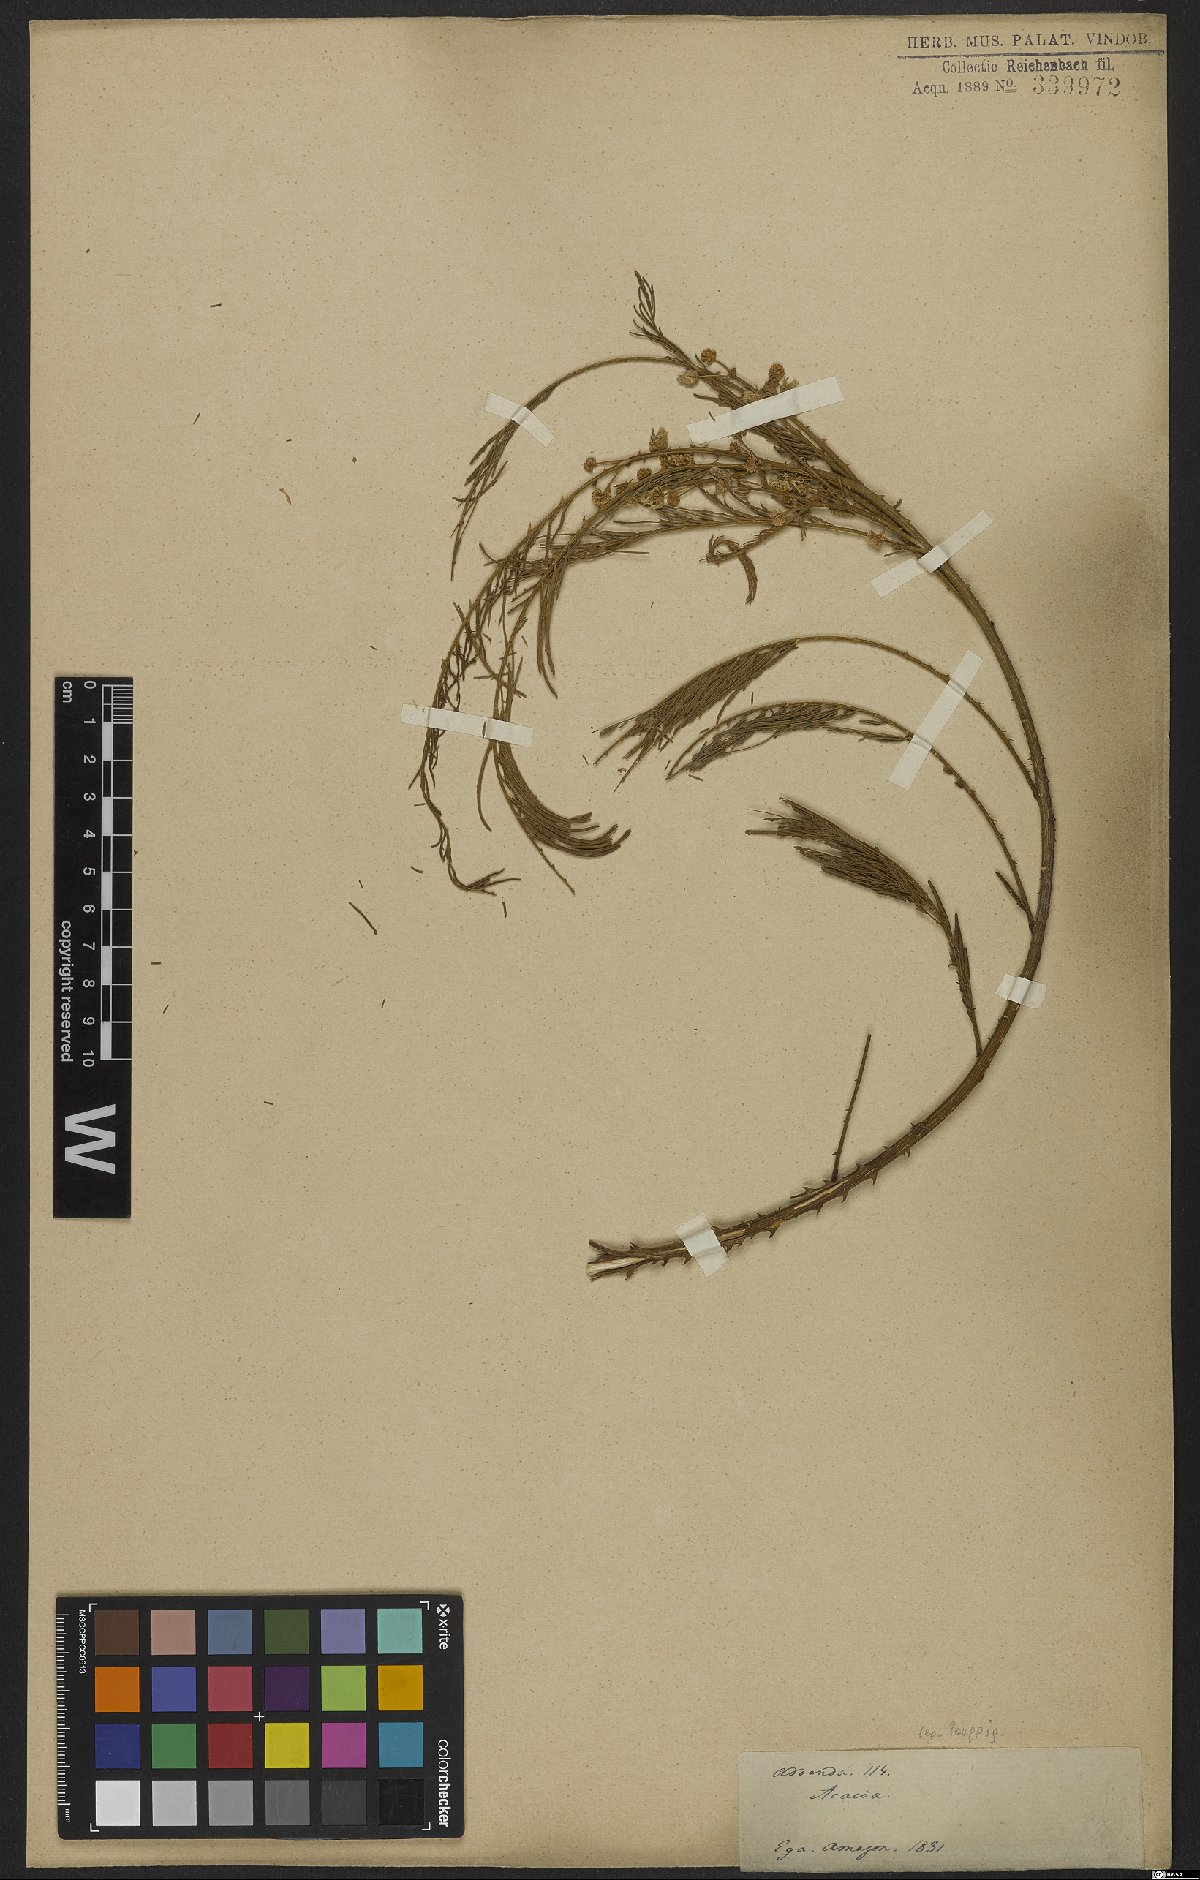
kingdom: Plantae
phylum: Tracheophyta
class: Magnoliopsida
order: Fabales
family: Fabaceae
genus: Senegalia
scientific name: Senegalia paniculata
